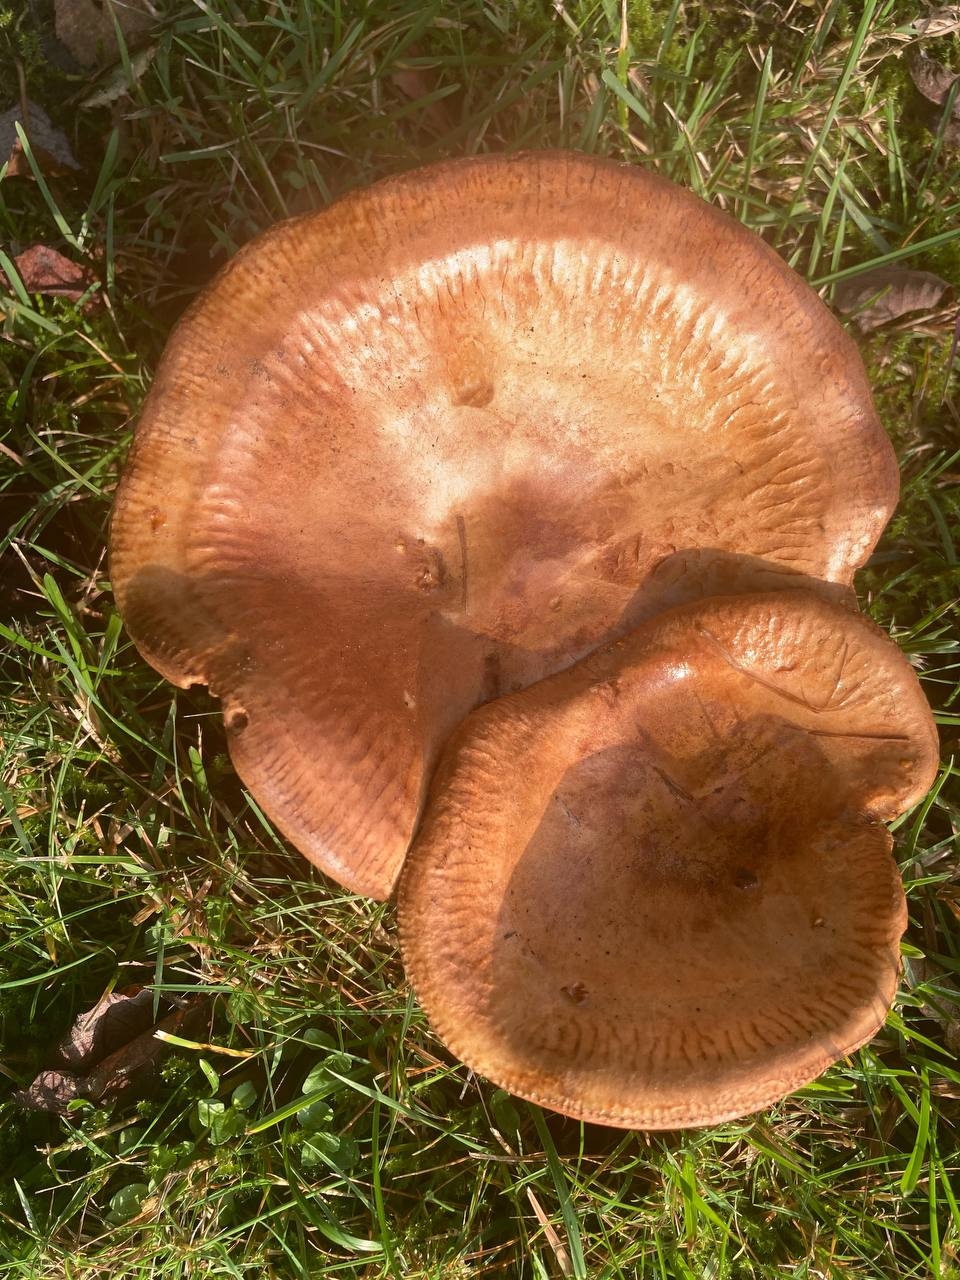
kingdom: Fungi
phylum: Basidiomycota
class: Agaricomycetes
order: Boletales
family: Paxillaceae
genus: Paxillus
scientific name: Paxillus
